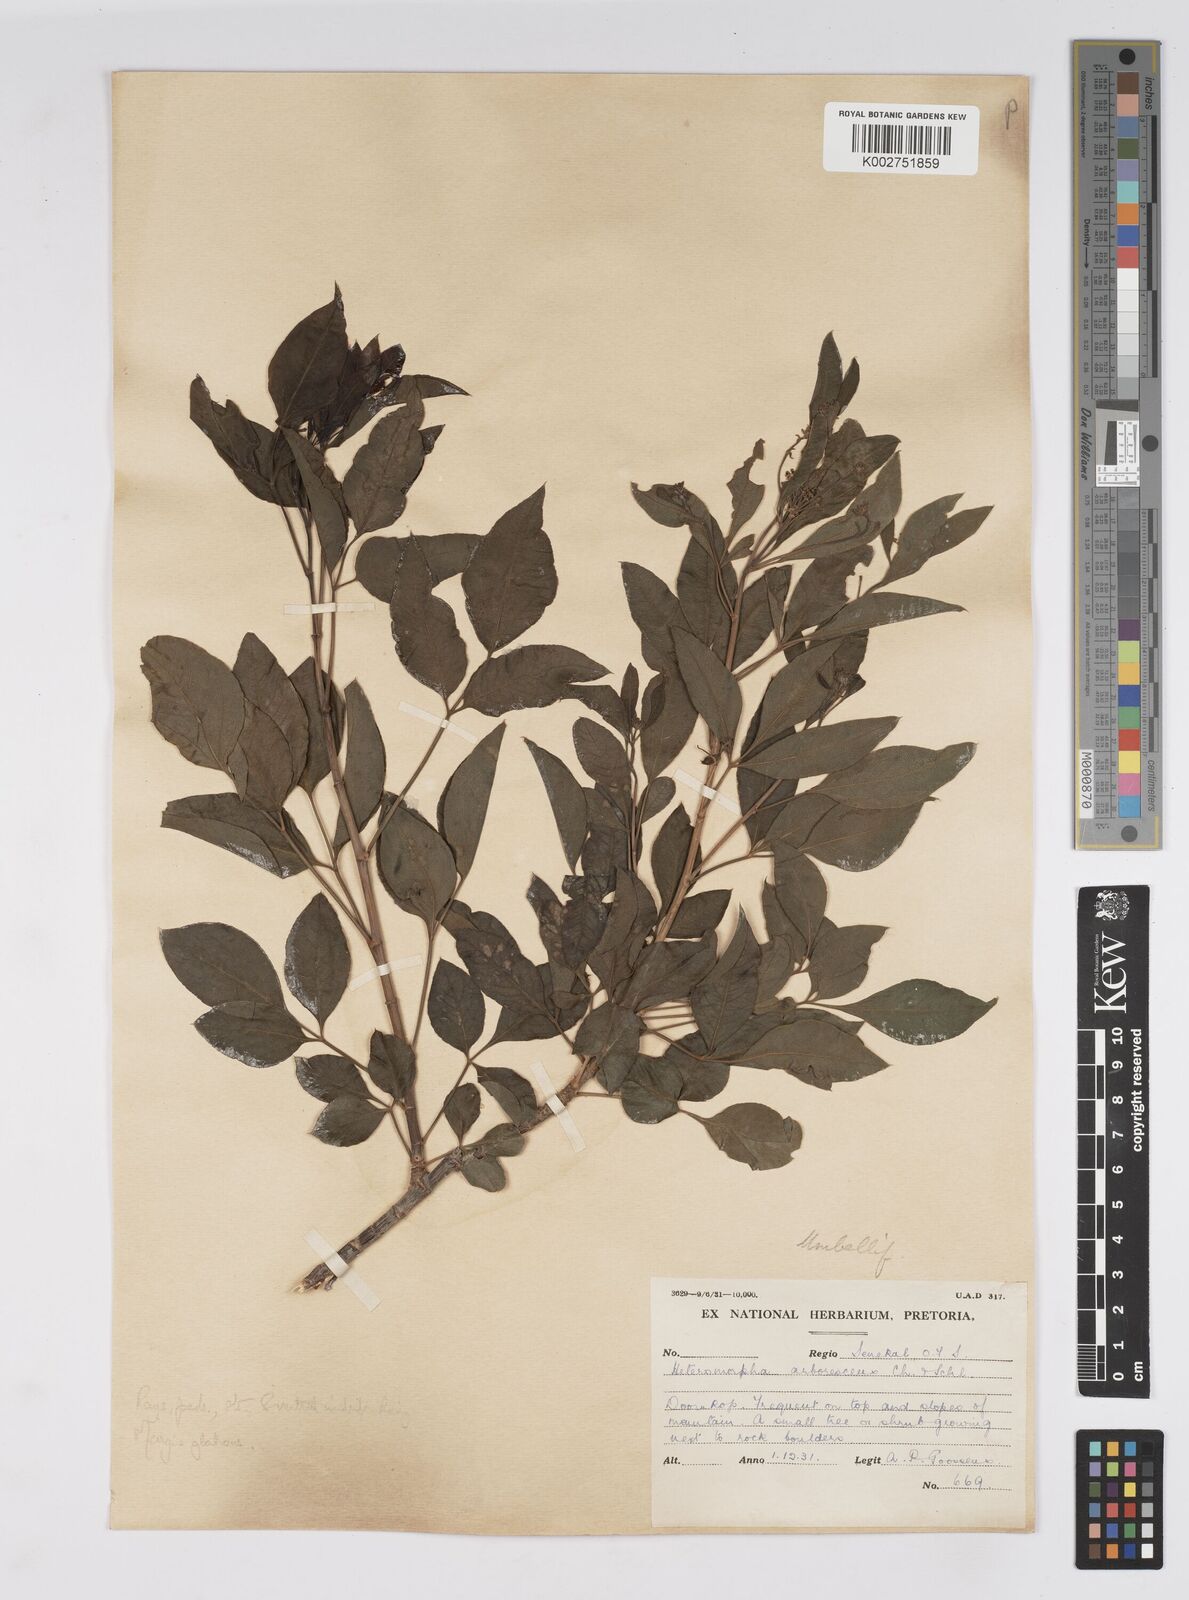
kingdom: Plantae
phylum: Tracheophyta
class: Magnoliopsida
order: Apiales
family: Apiaceae
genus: Heteromorpha
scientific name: Heteromorpha arborescens
